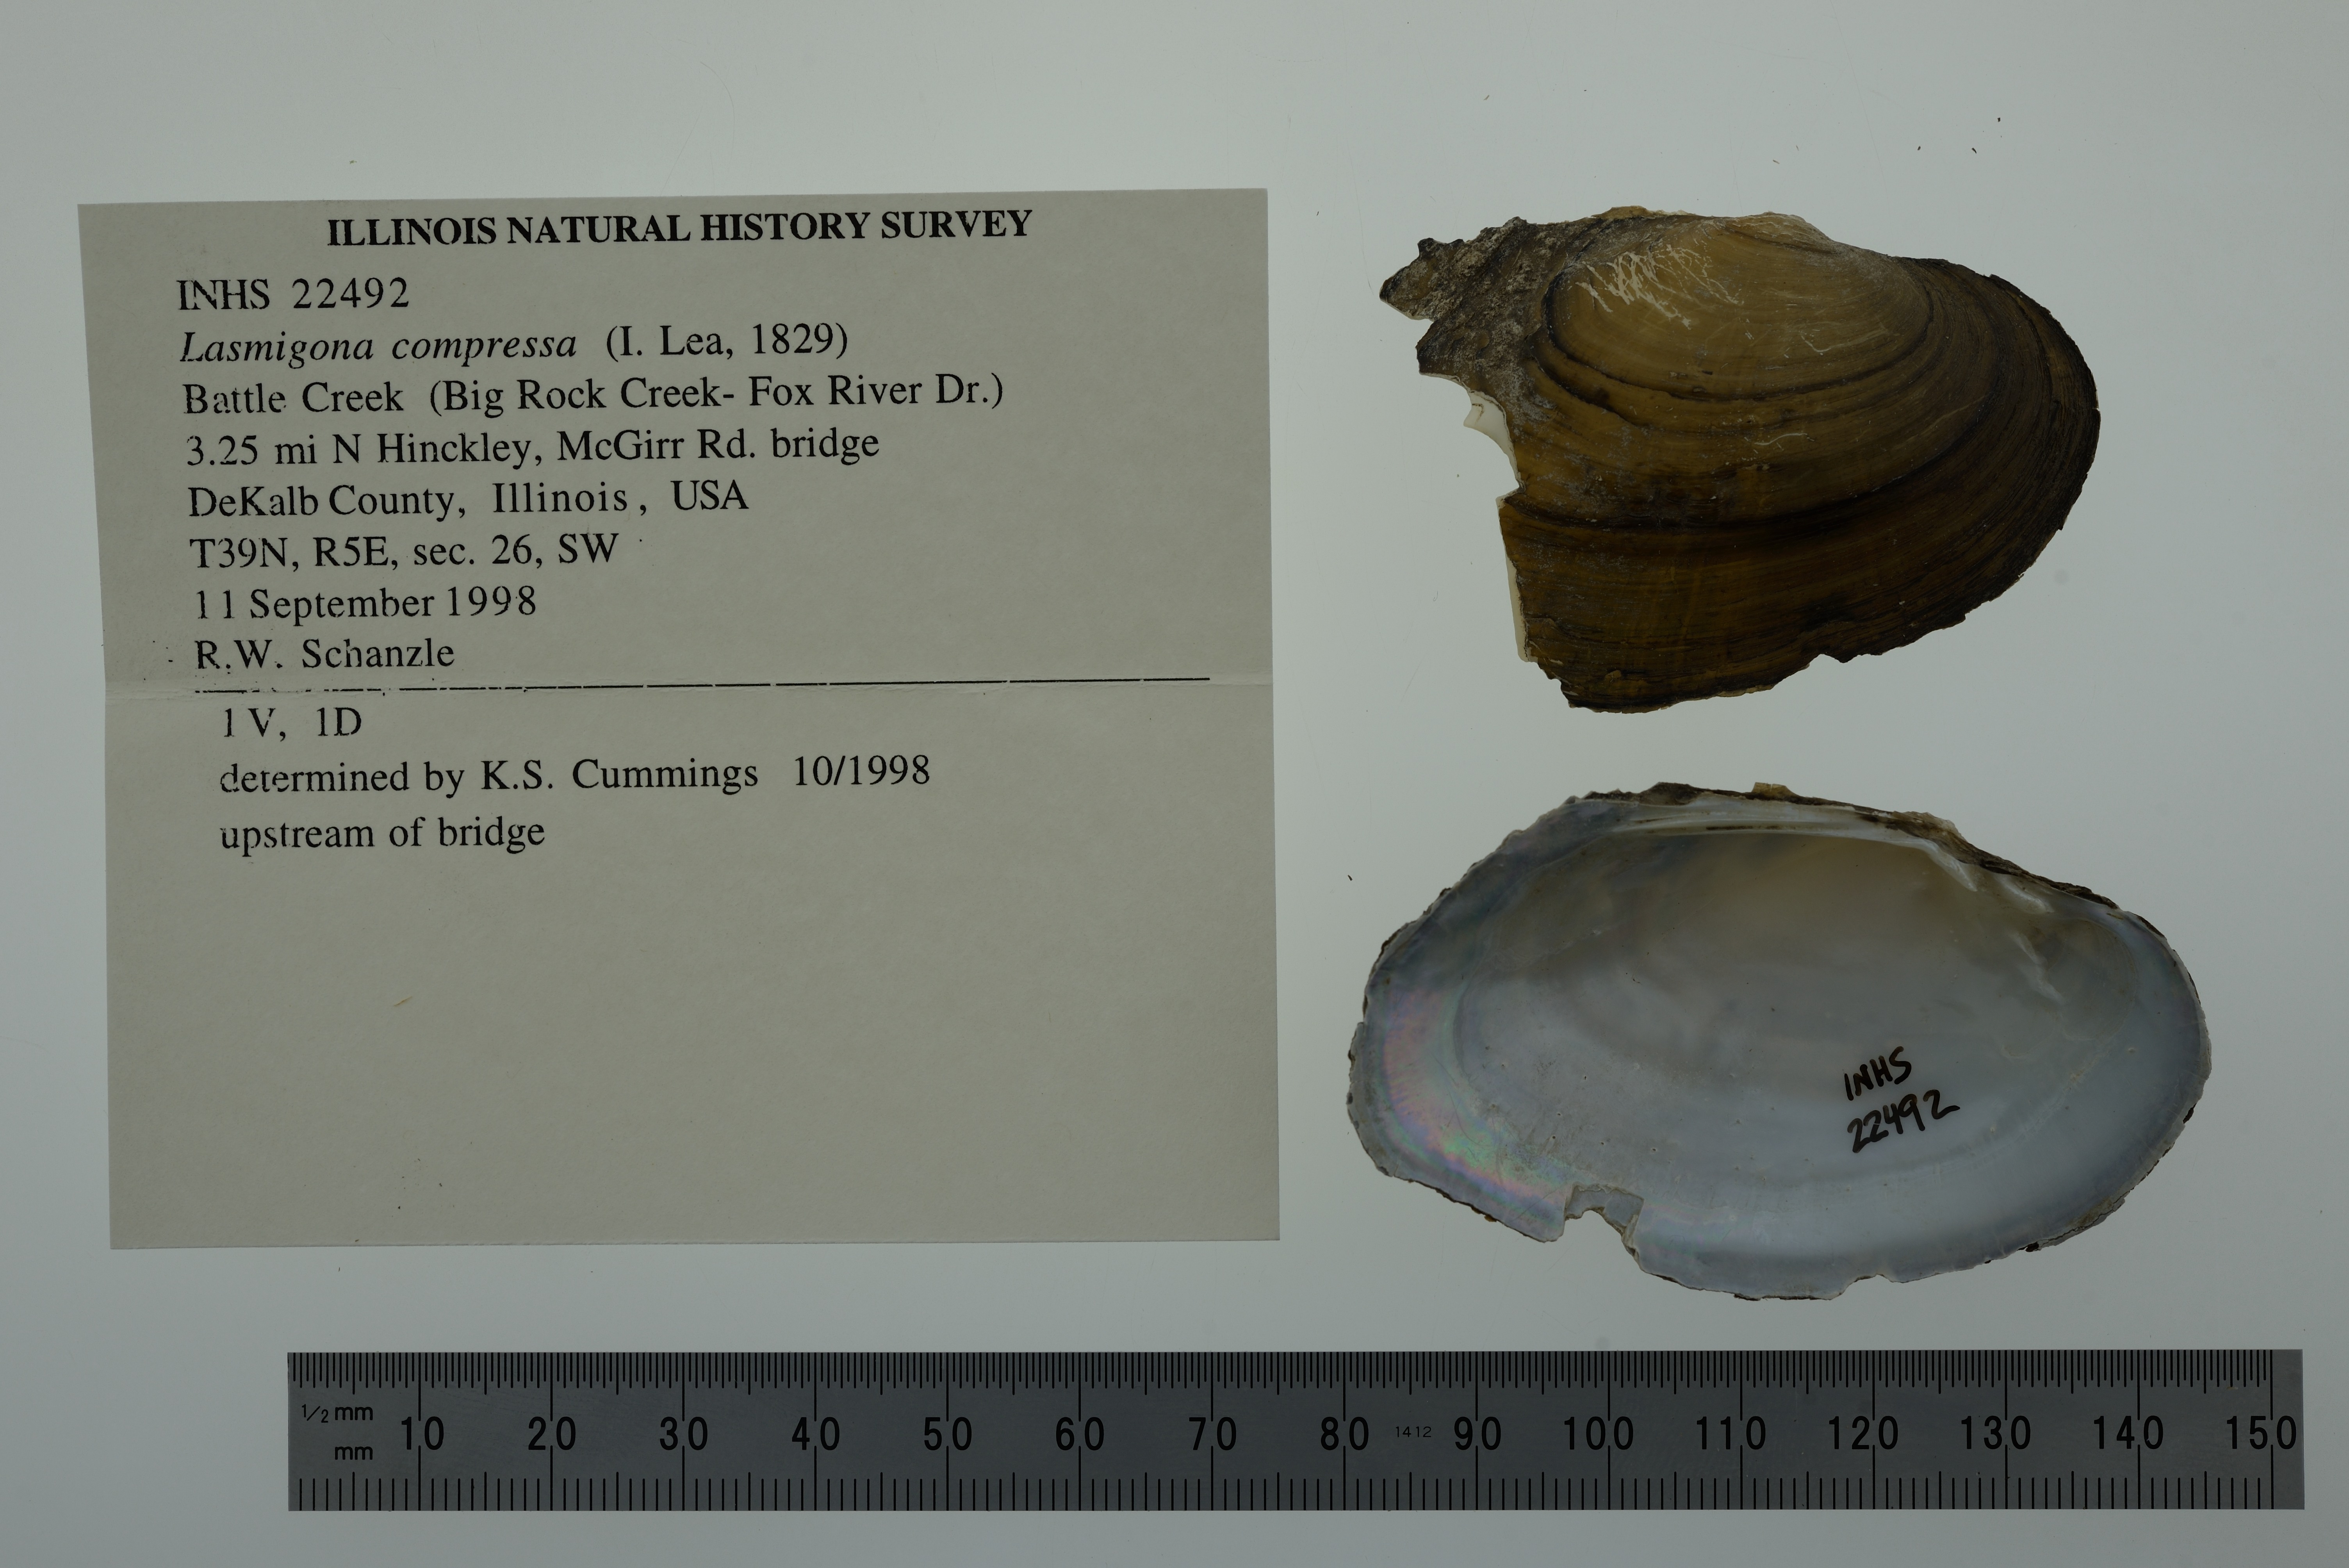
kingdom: Animalia
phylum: Mollusca
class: Bivalvia
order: Unionida
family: Unionidae
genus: Lasmigona
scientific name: Lasmigona compressa
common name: Creek heelsplitter
